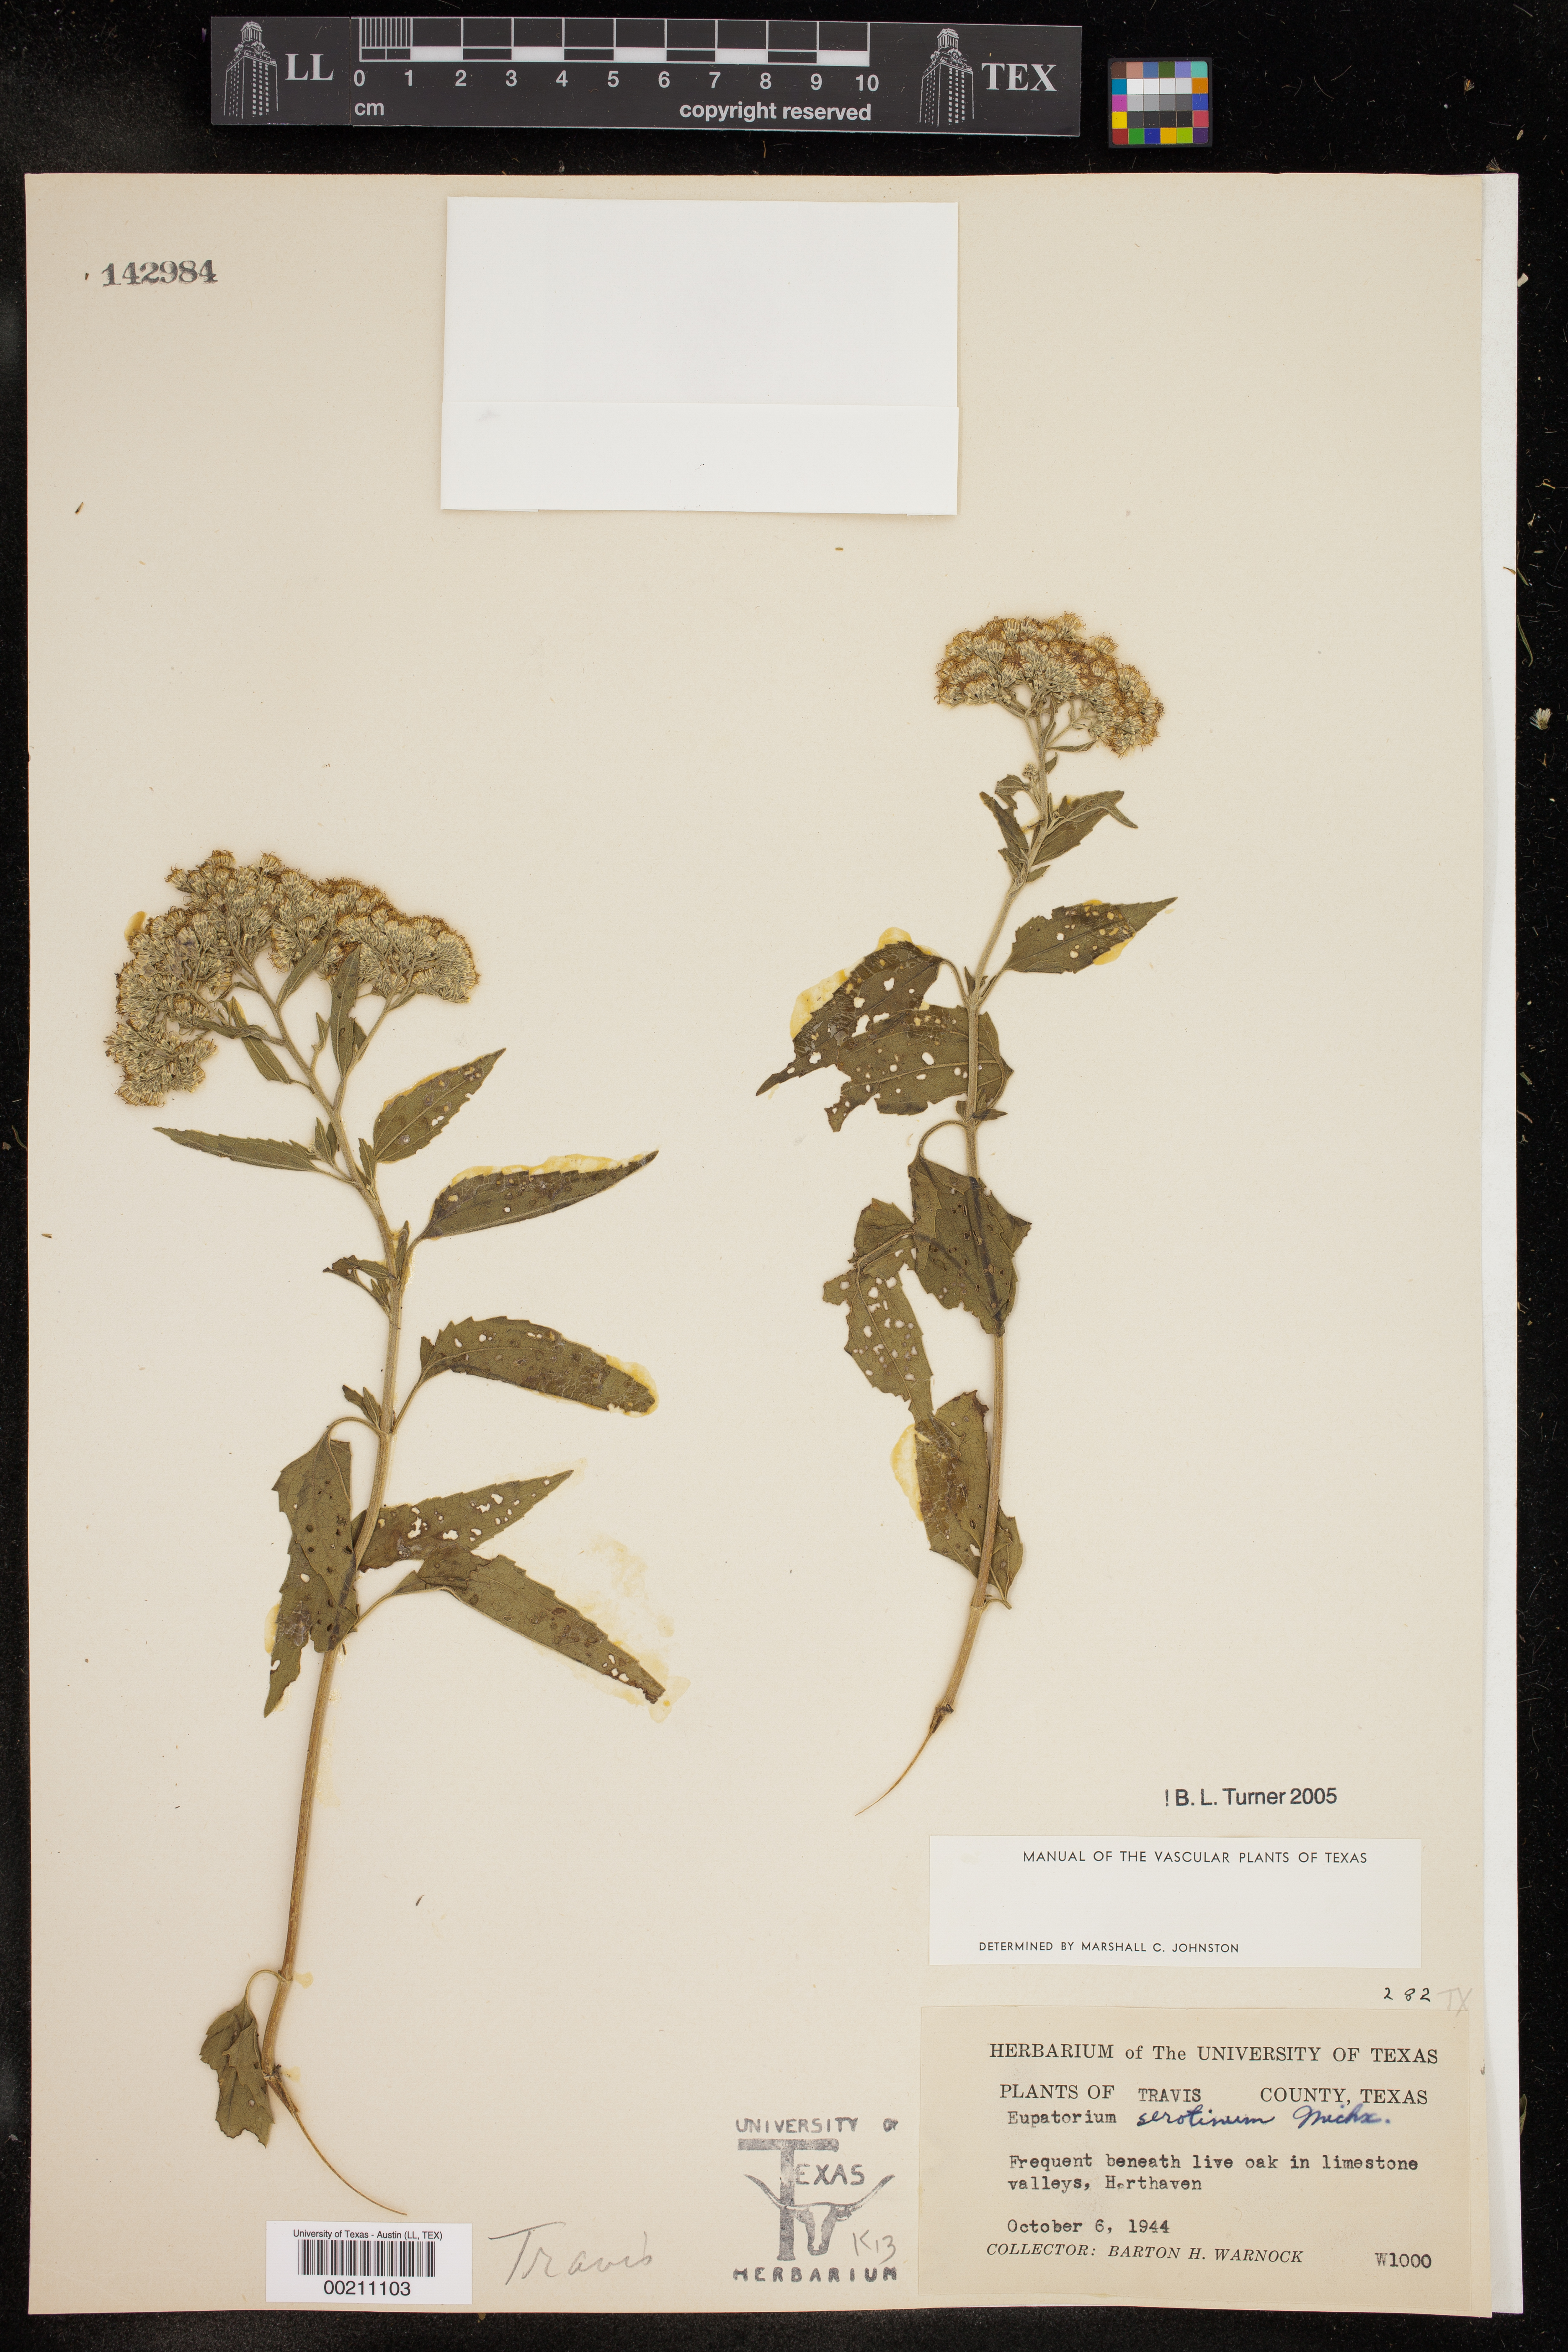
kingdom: Plantae
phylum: Tracheophyta
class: Magnoliopsida
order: Asterales
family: Asteraceae
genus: Eupatorium
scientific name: Eupatorium serotinum
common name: Late boneset
